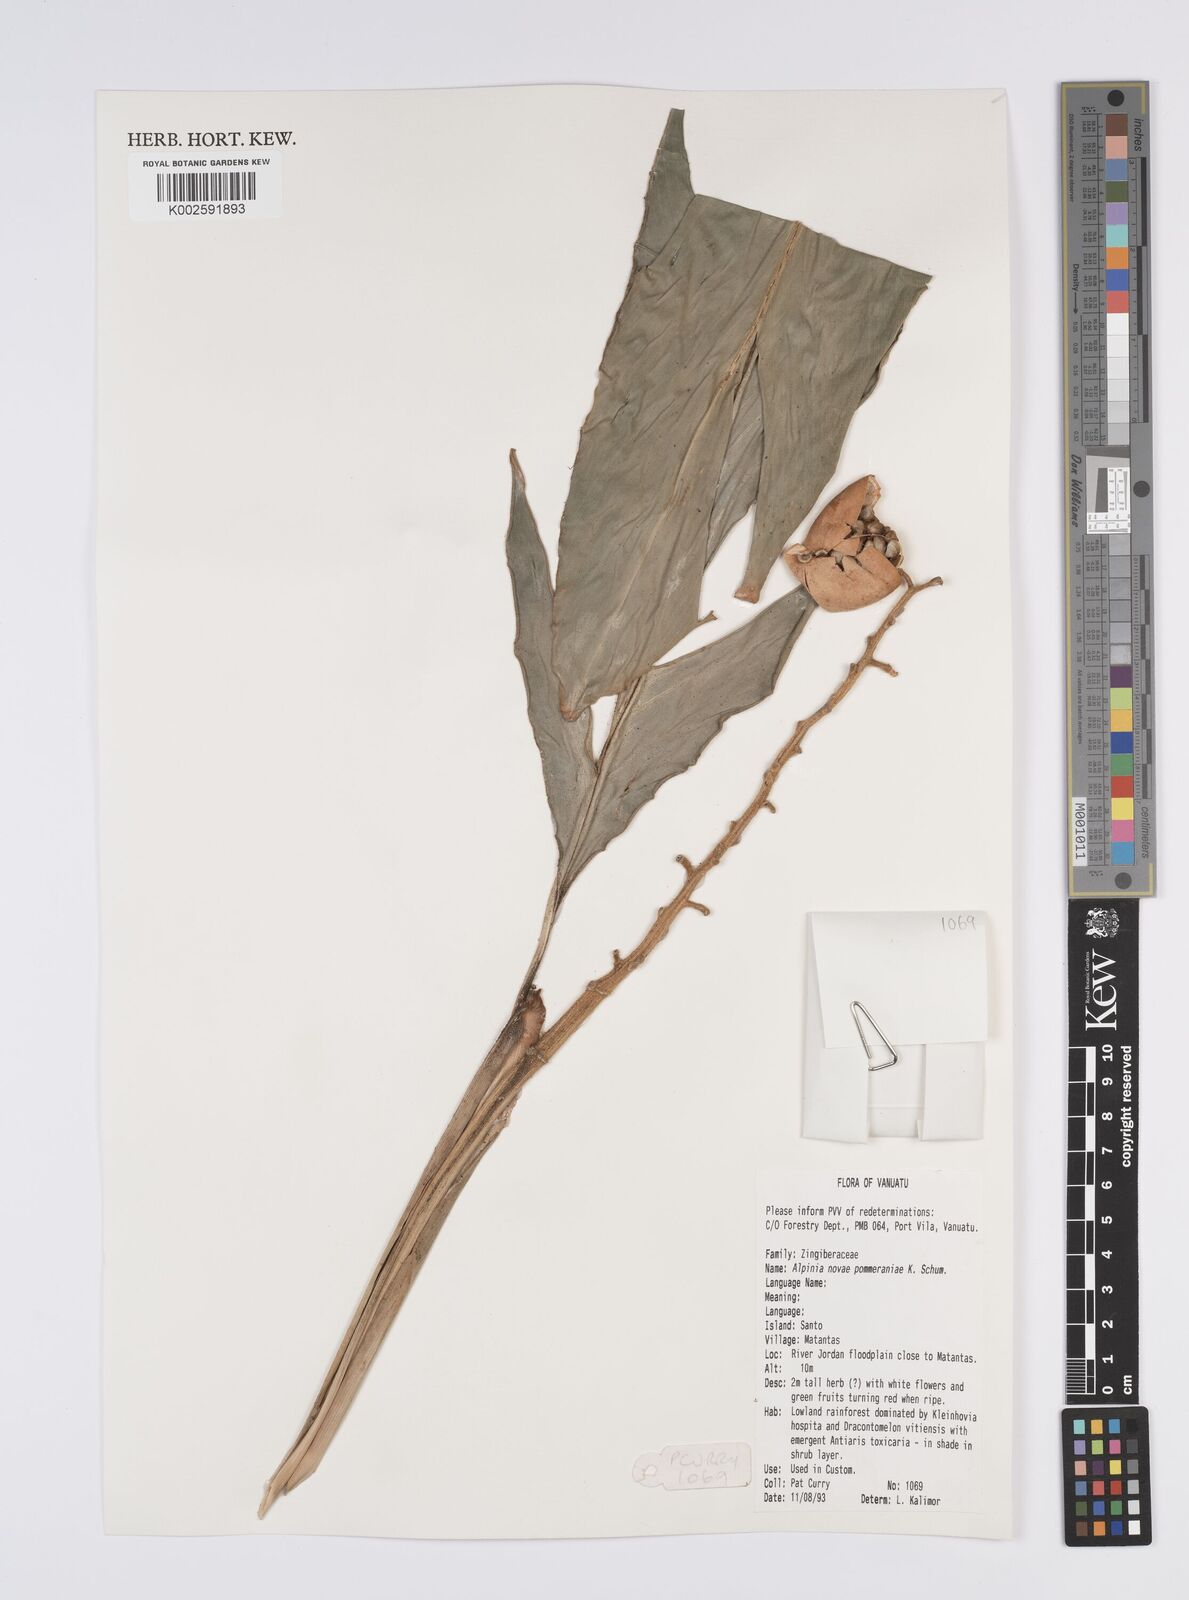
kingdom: Plantae
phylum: Tracheophyta
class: Liliopsida
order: Zingiberales
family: Zingiberaceae
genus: Alpinia
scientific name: Alpinia novae-pommeraniae
